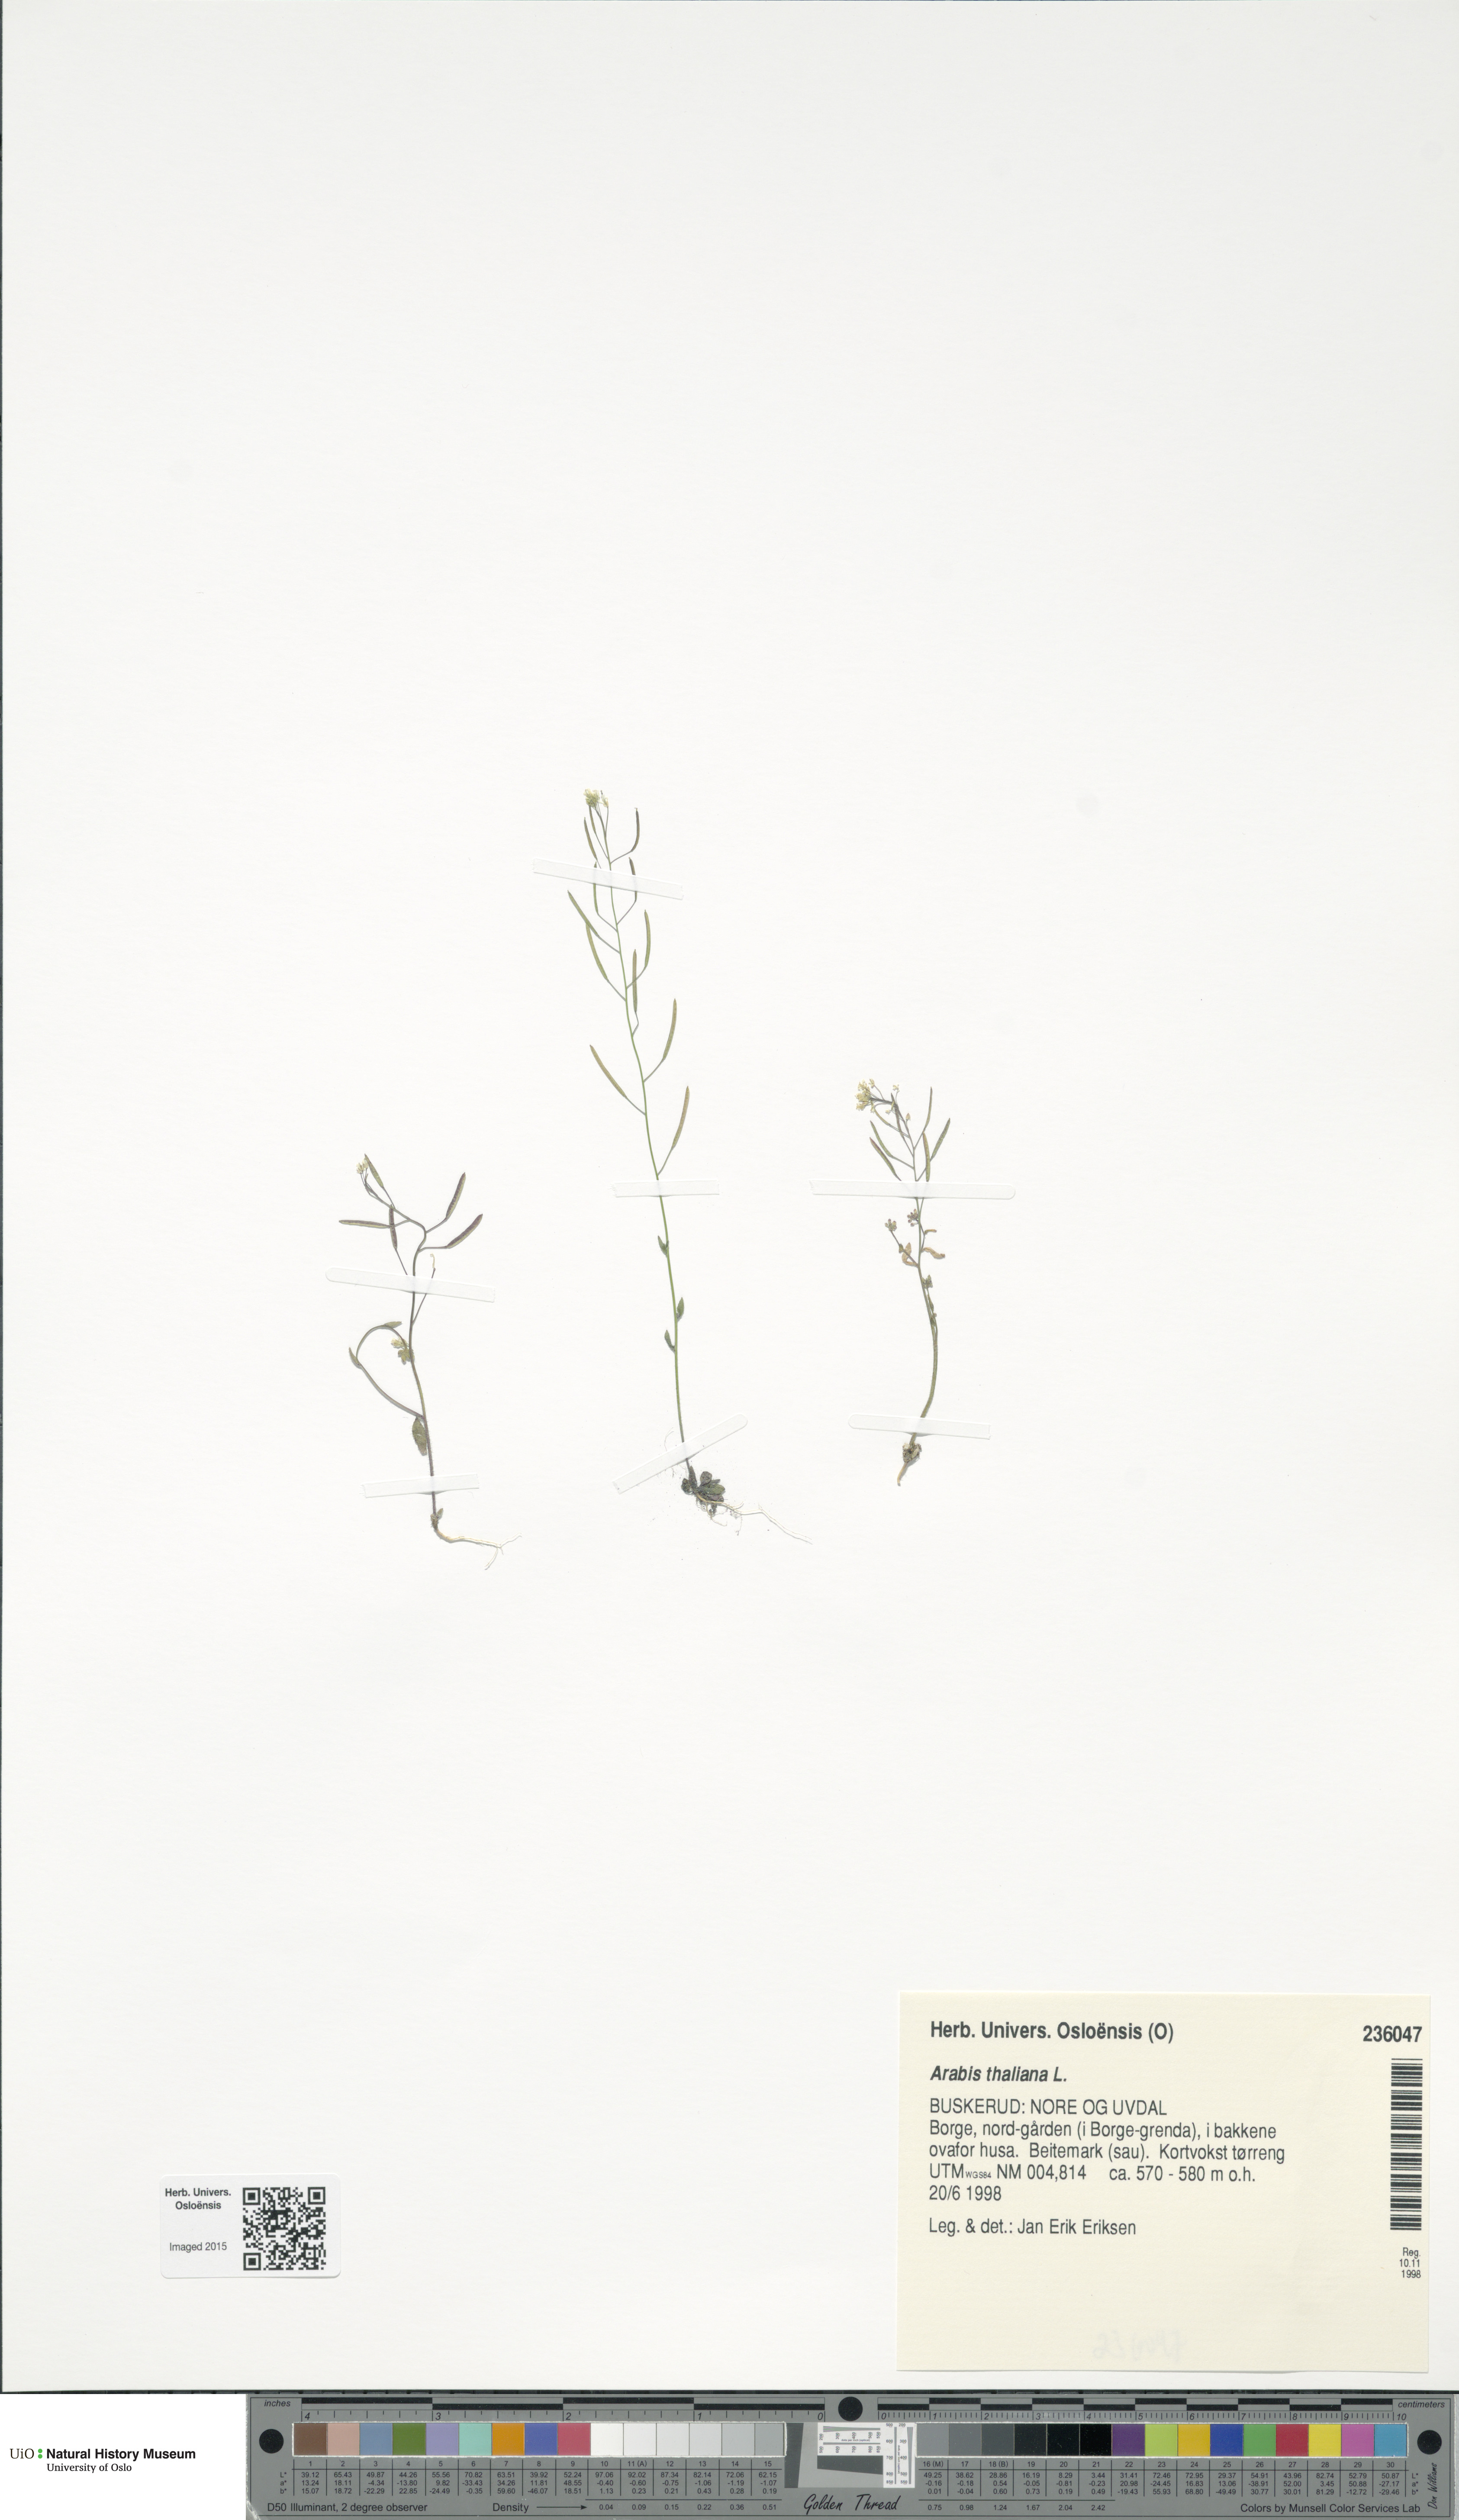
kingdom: Plantae
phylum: Tracheophyta
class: Magnoliopsida
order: Brassicales
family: Brassicaceae
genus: Arabidopsis
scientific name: Arabidopsis thaliana
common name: Thale cress
